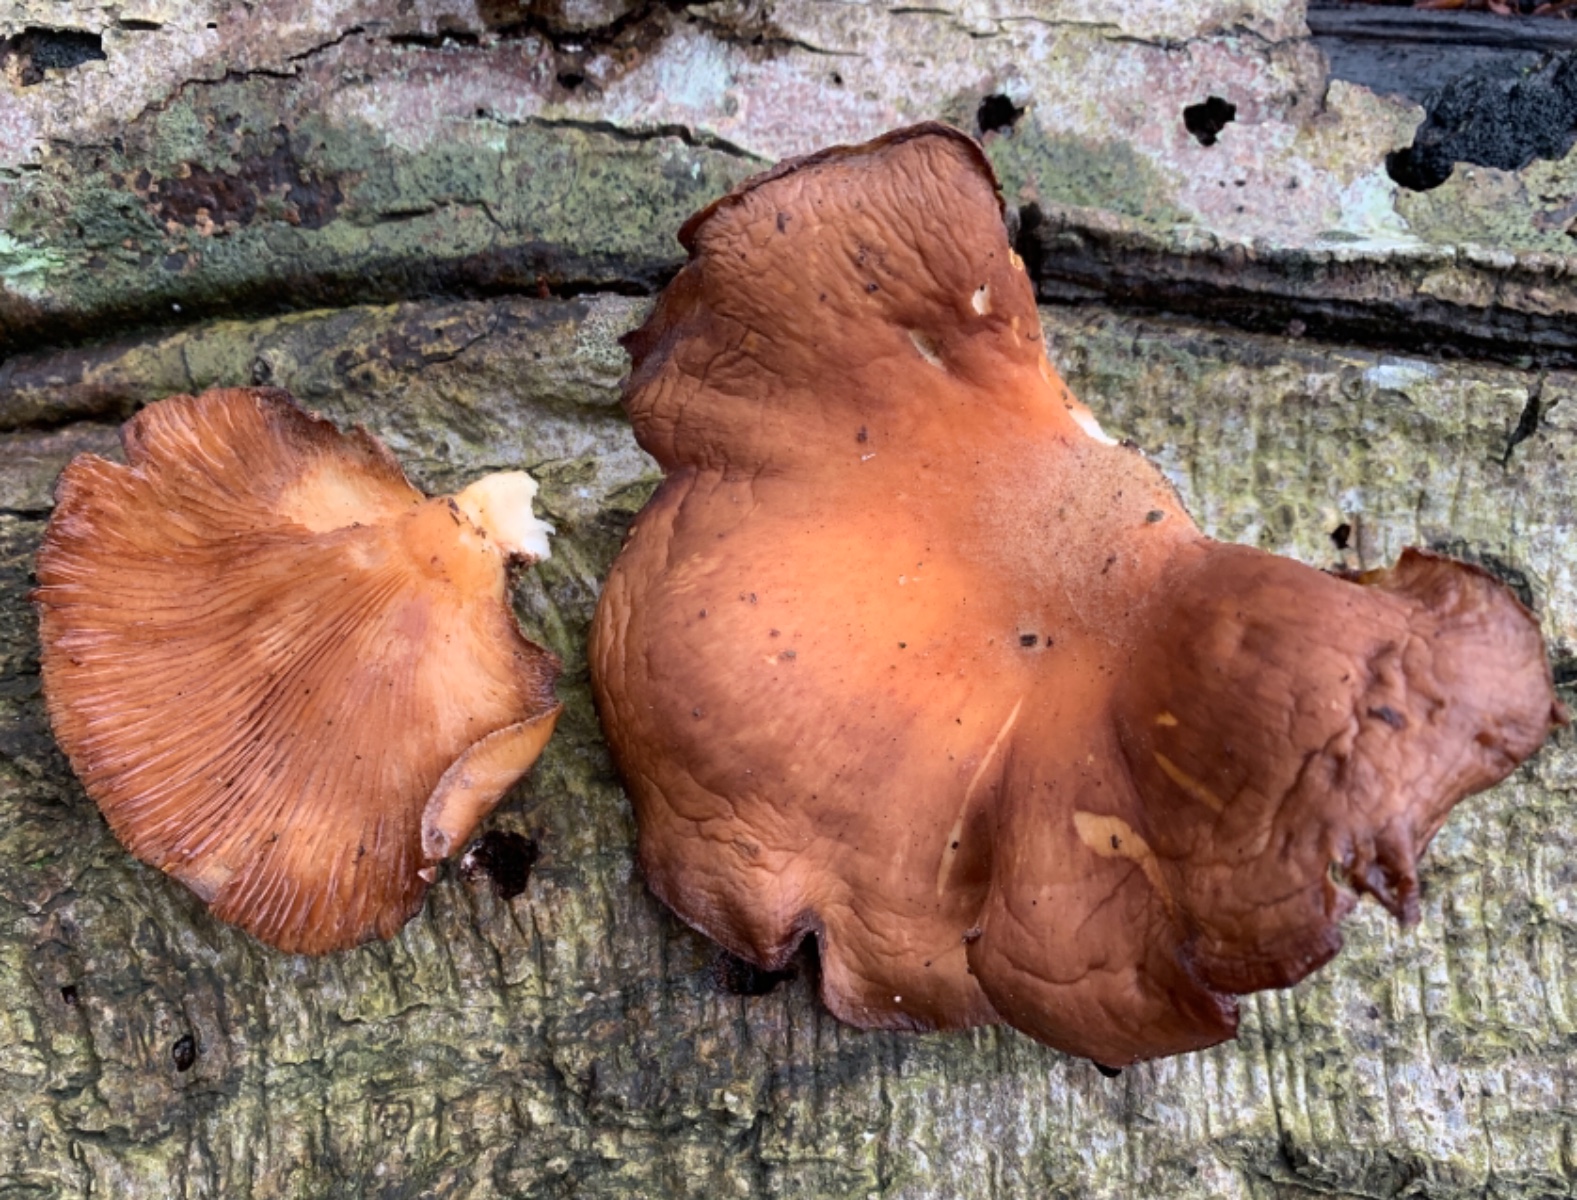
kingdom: Fungi
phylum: Basidiomycota
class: Agaricomycetes
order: Agaricales
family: Sarcomyxaceae
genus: Sarcomyxa
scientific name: Sarcomyxa serotina
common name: gummihat
